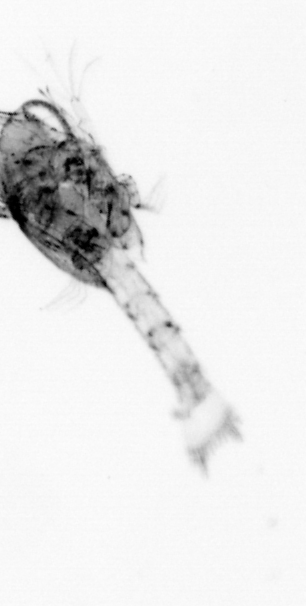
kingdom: Animalia
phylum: Arthropoda
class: Malacostraca
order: Decapoda
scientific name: Decapoda
